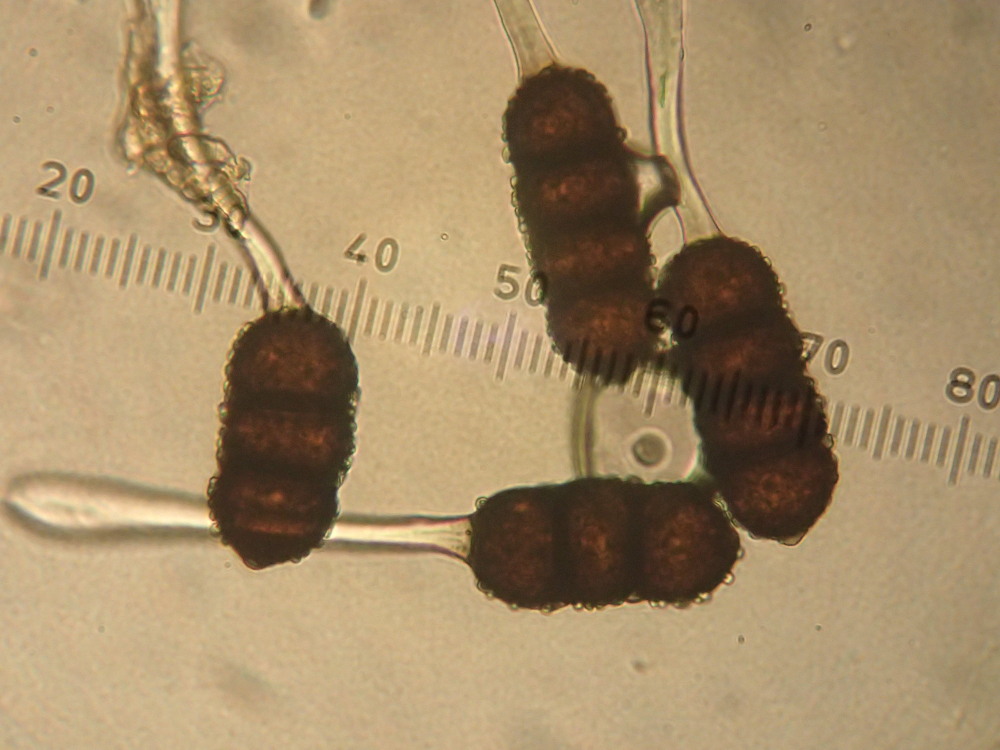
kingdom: Fungi
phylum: Basidiomycota
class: Pucciniomycetes
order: Pucciniales
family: Phragmidiaceae
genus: Phragmidium
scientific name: Phragmidium violaceum
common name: violet flercellerust
